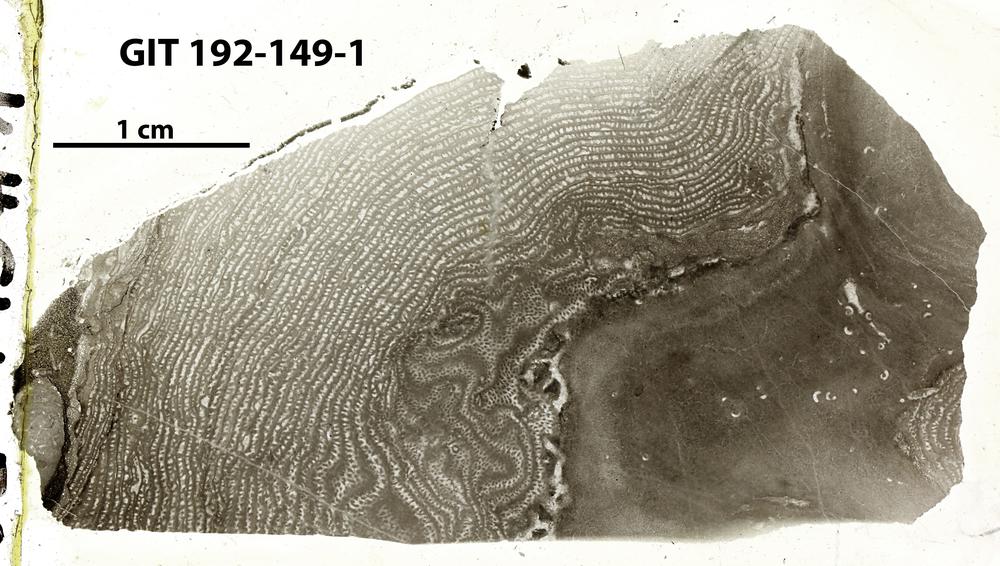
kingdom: Animalia
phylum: Porifera
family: Stromatoporellidae
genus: Simplexodictyon
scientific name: Simplexodictyon
